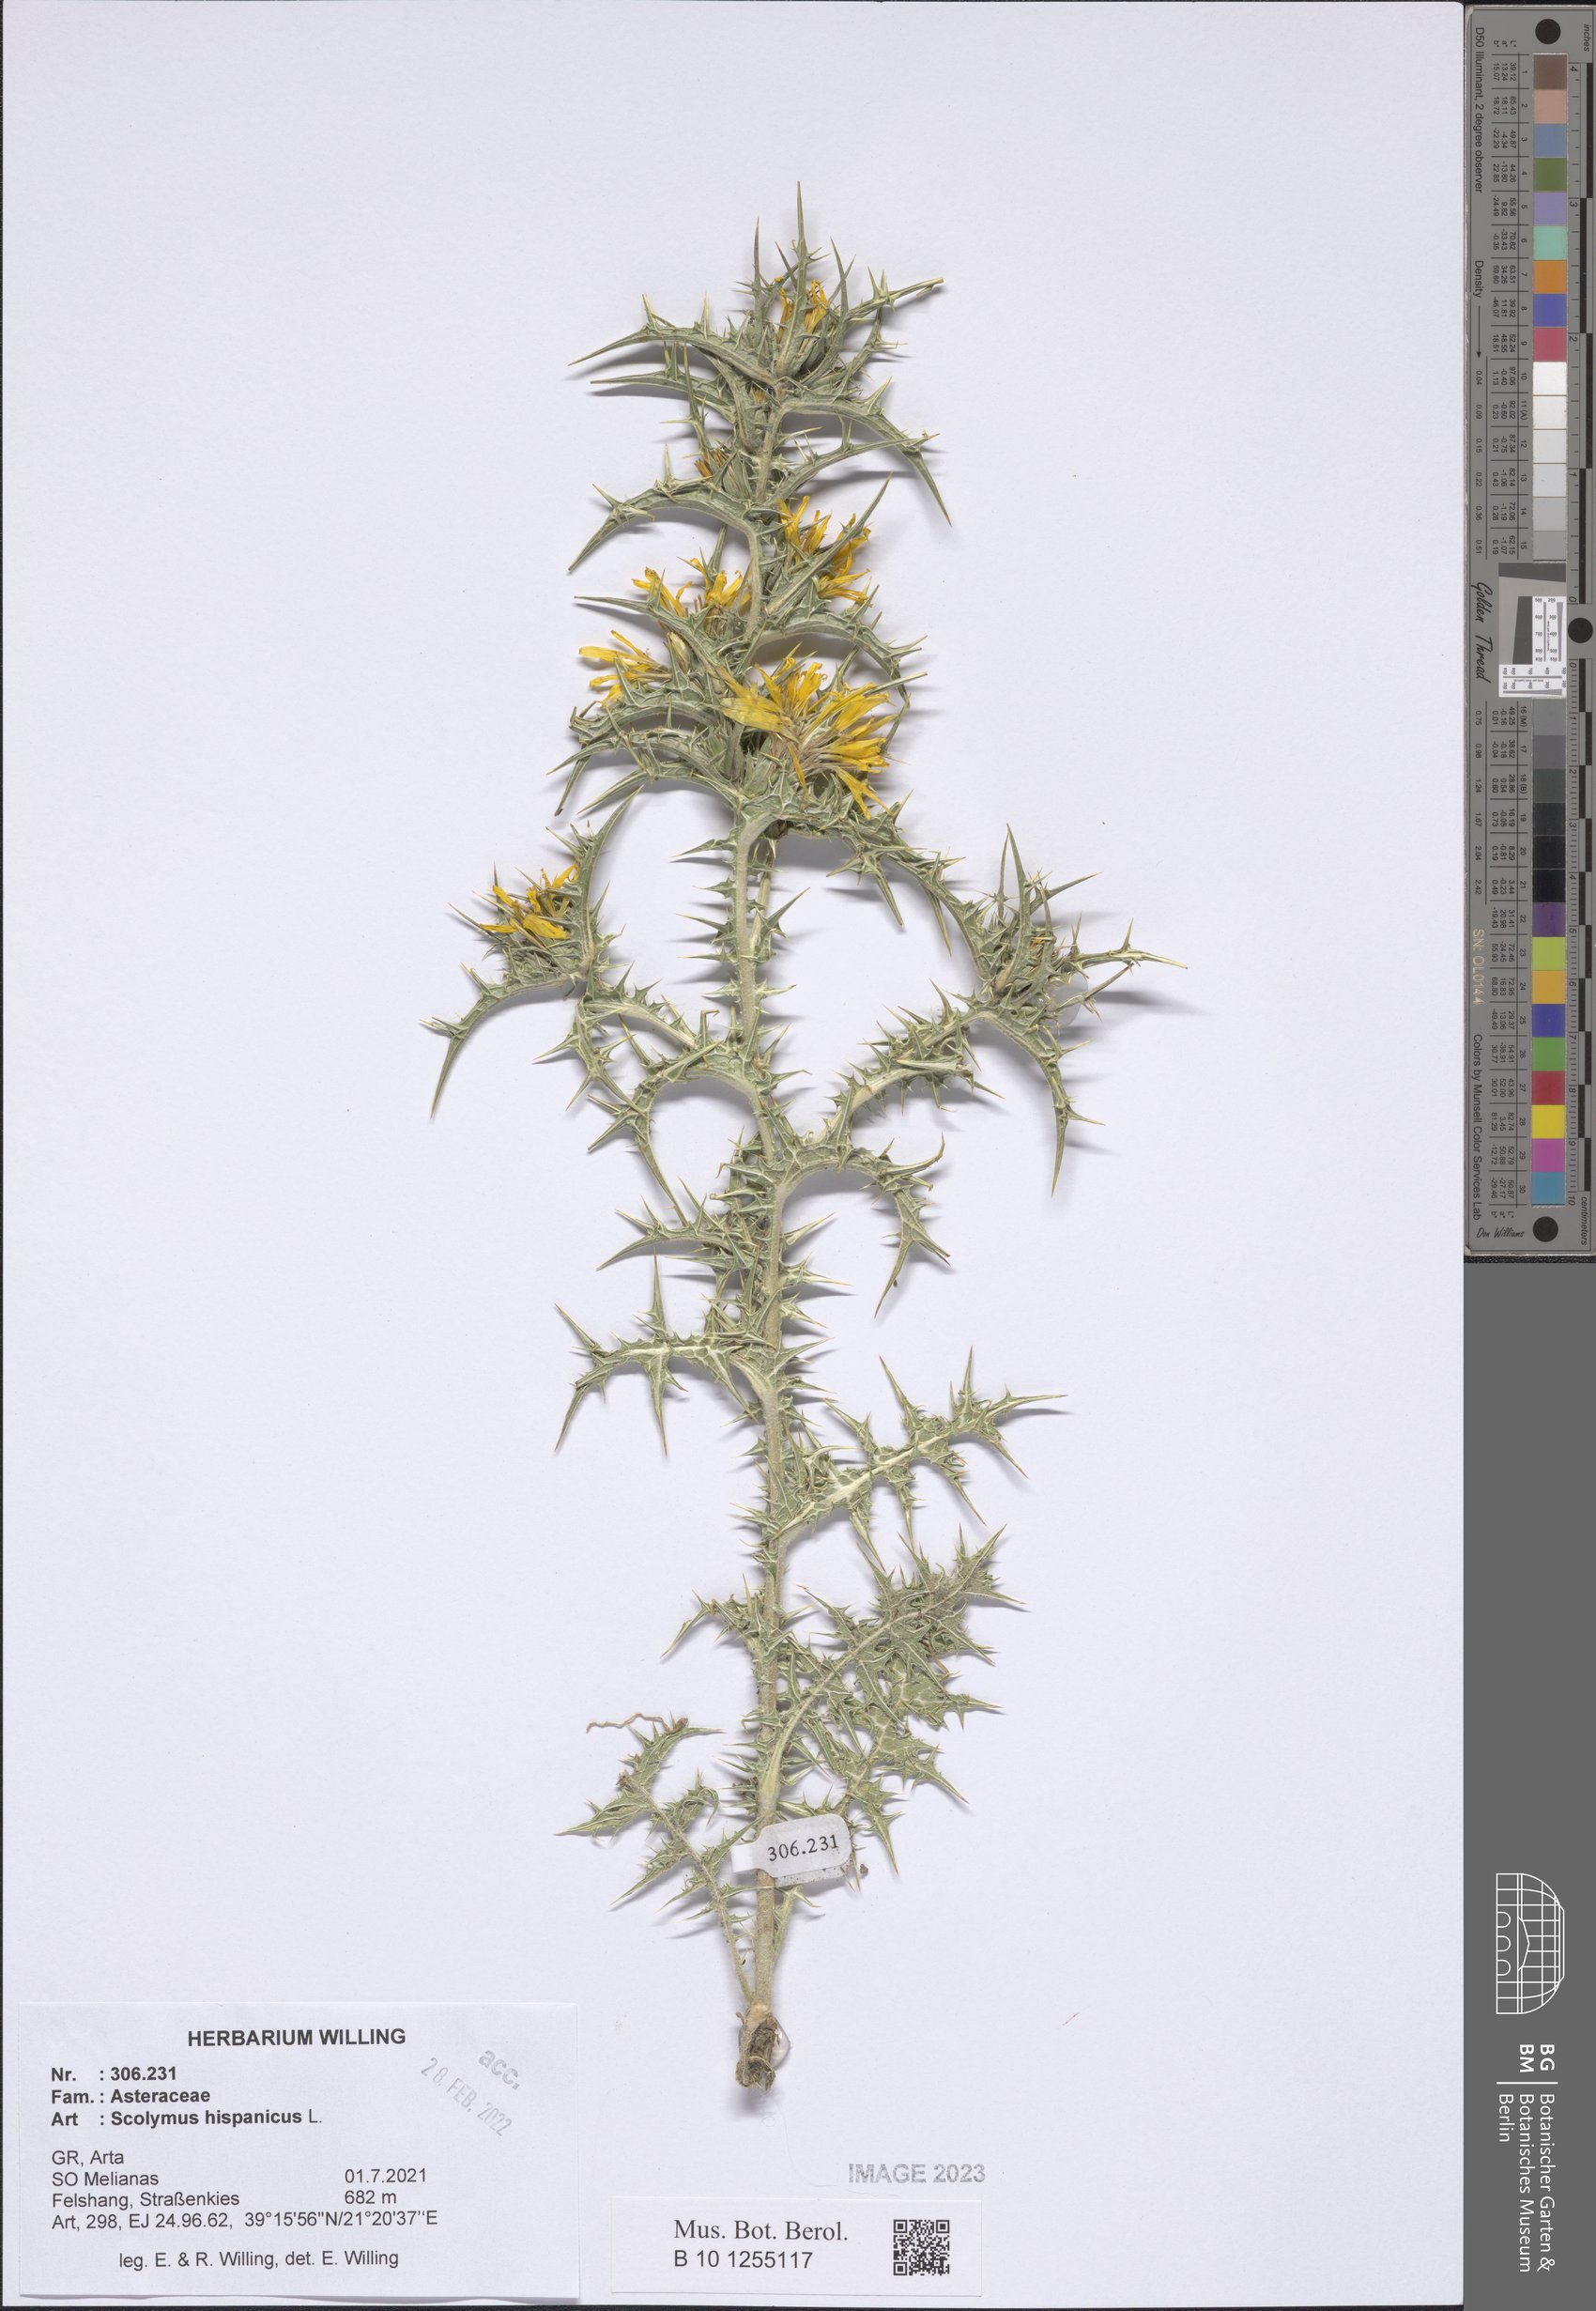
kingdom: Plantae
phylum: Tracheophyta
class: Magnoliopsida
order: Asterales
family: Asteraceae
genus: Scolymus
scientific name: Scolymus hispanicus
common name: Golden thistle
